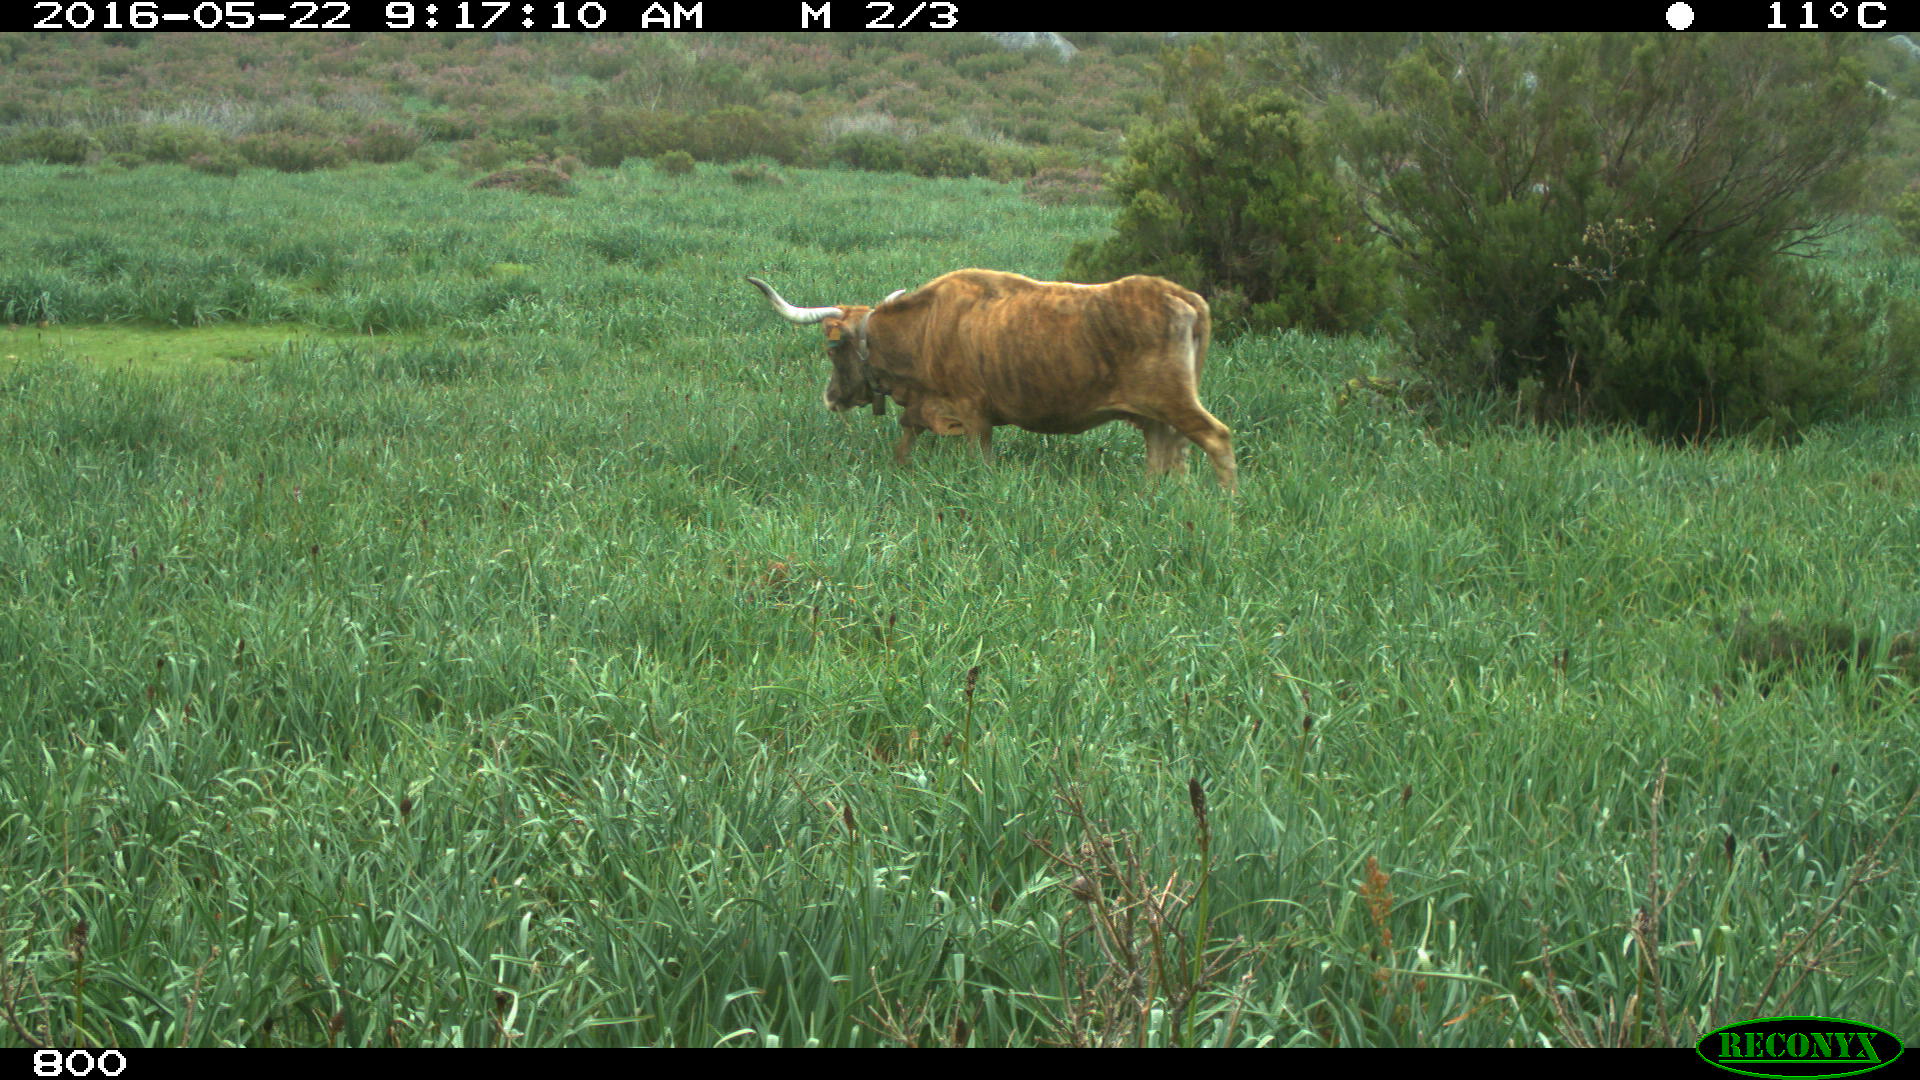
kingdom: Animalia
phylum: Chordata
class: Mammalia
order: Artiodactyla
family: Bovidae
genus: Bos
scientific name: Bos taurus
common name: Domesticated cattle
